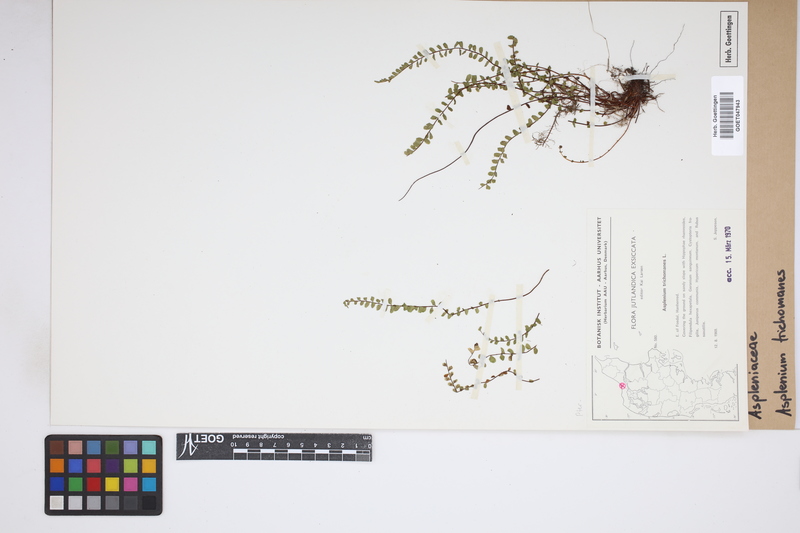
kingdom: Plantae
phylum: Tracheophyta
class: Polypodiopsida
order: Polypodiales
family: Aspleniaceae
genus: Asplenium
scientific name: Asplenium trichomanes
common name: Maidenhair spleenwort
